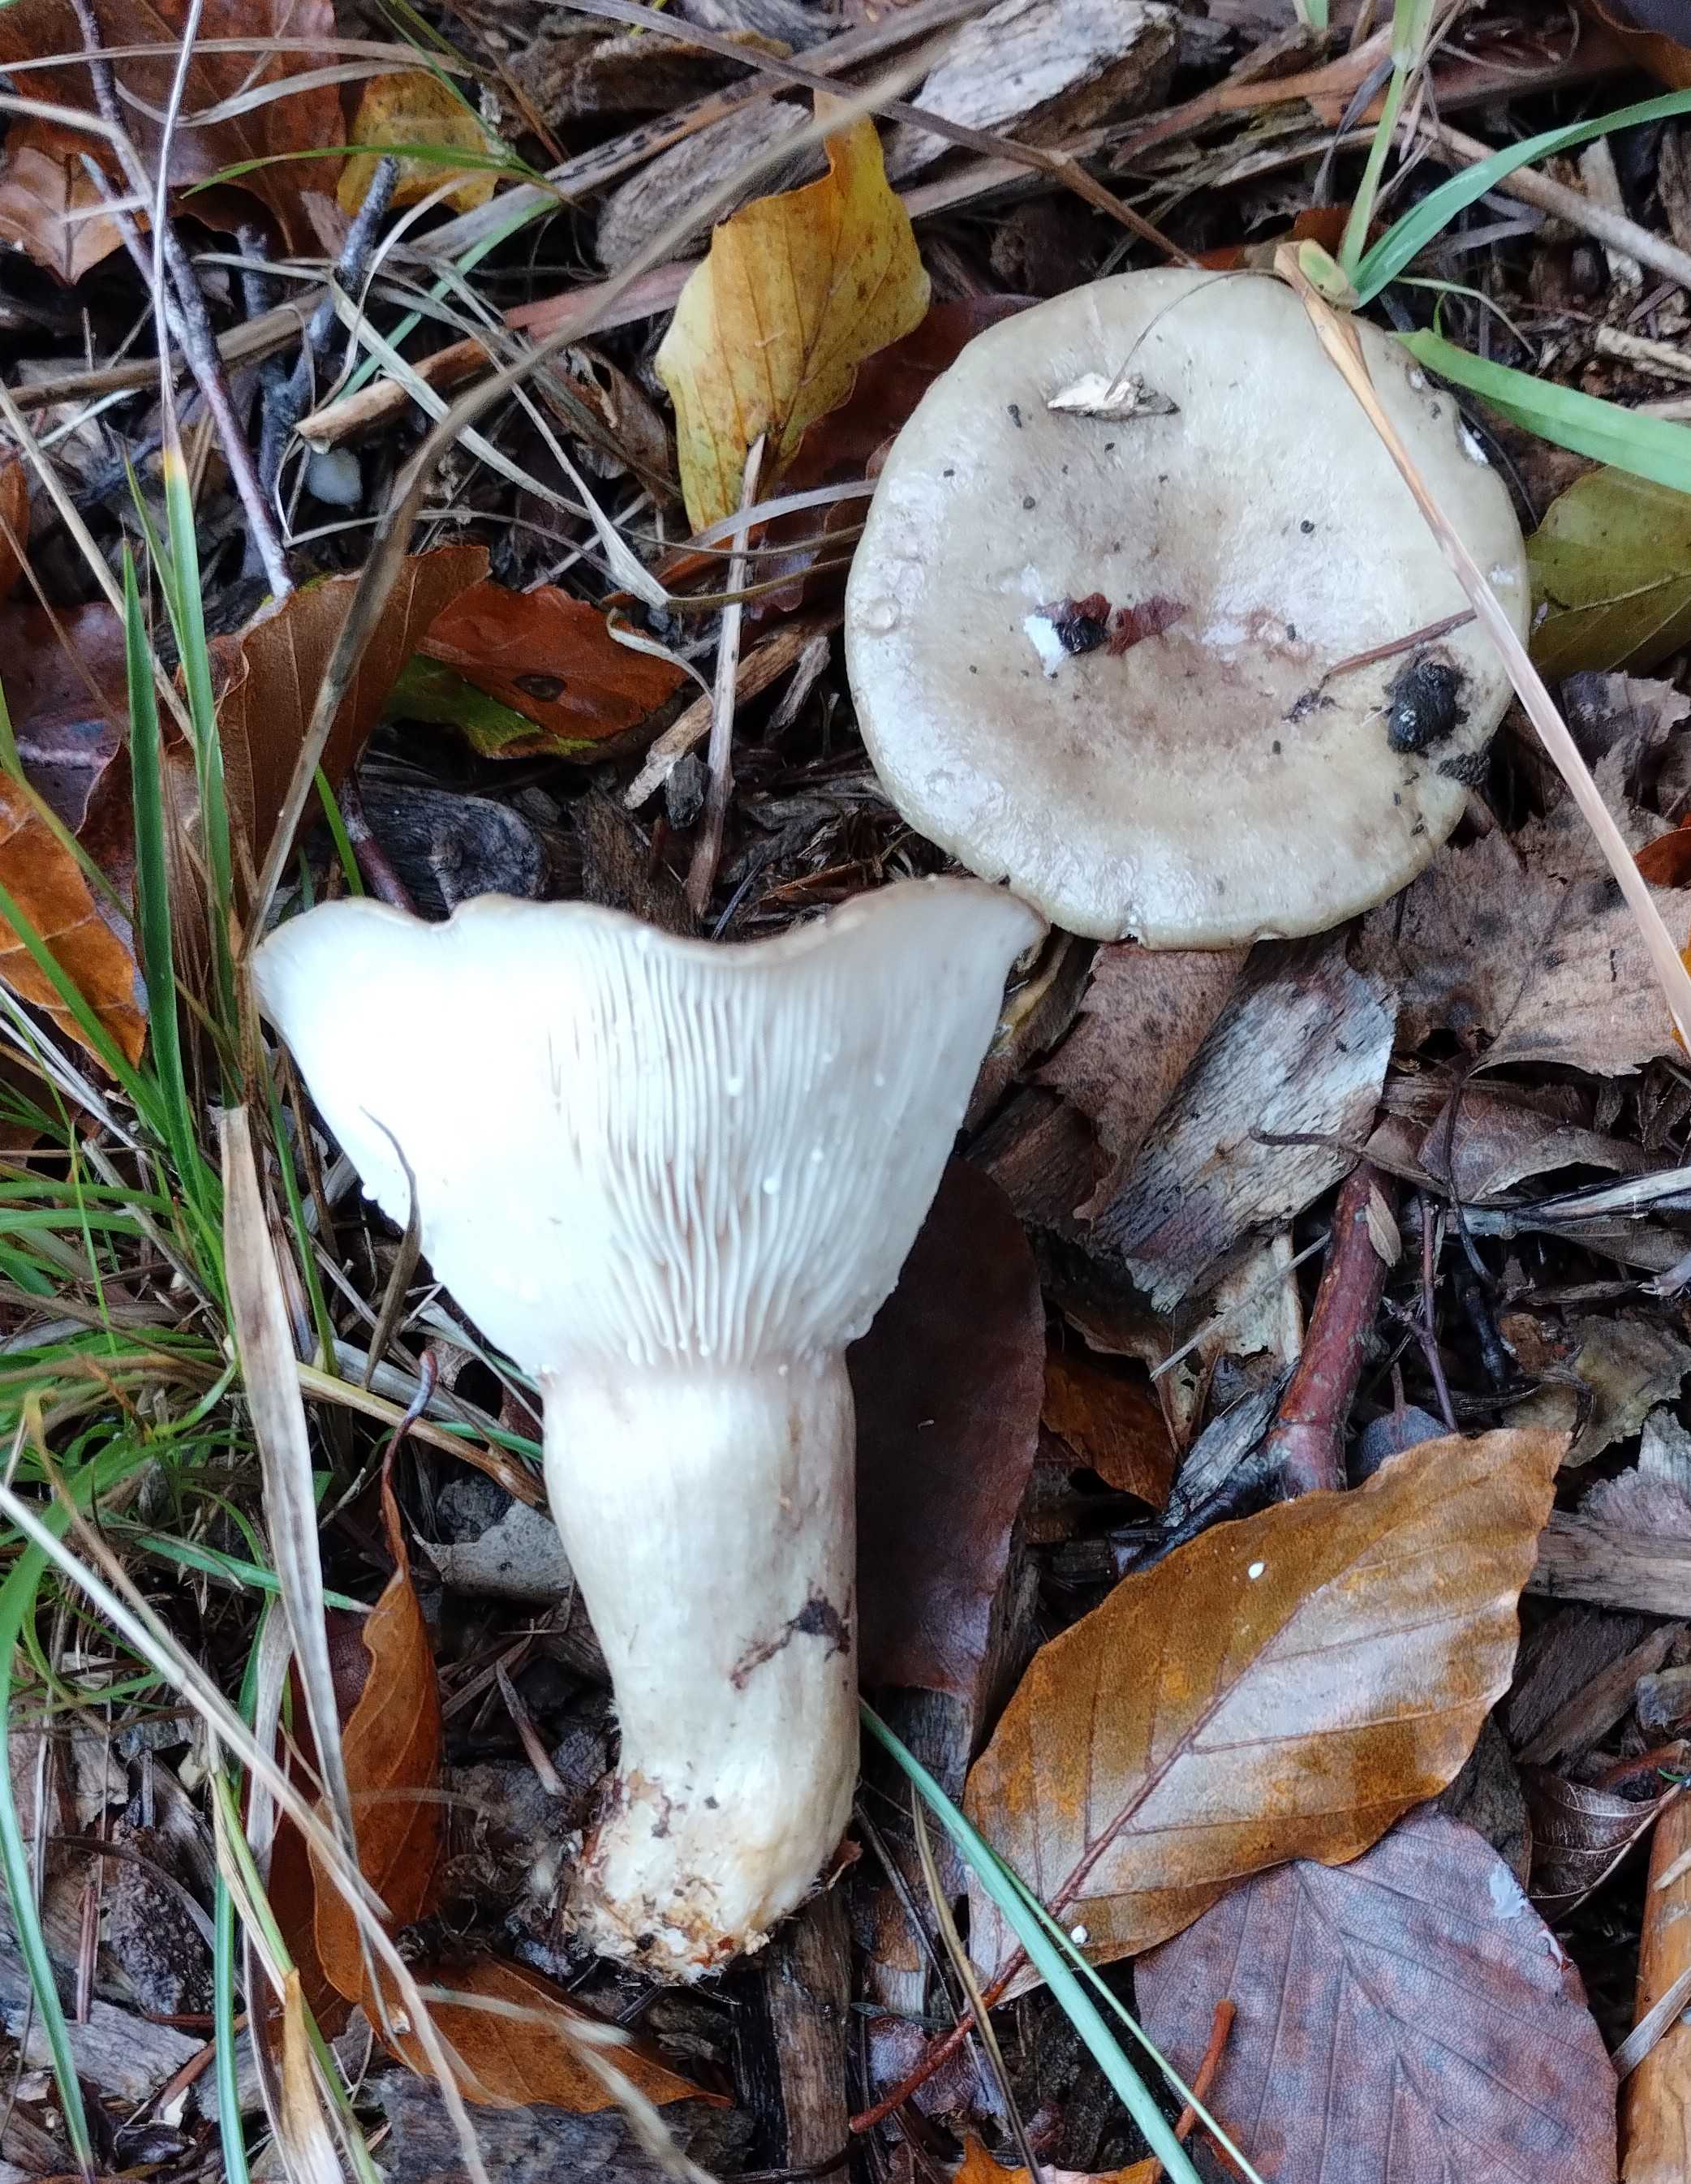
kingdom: Fungi
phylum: Basidiomycota
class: Agaricomycetes
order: Russulales
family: Russulaceae
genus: Lactarius
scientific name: Lactarius
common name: mælkehat
